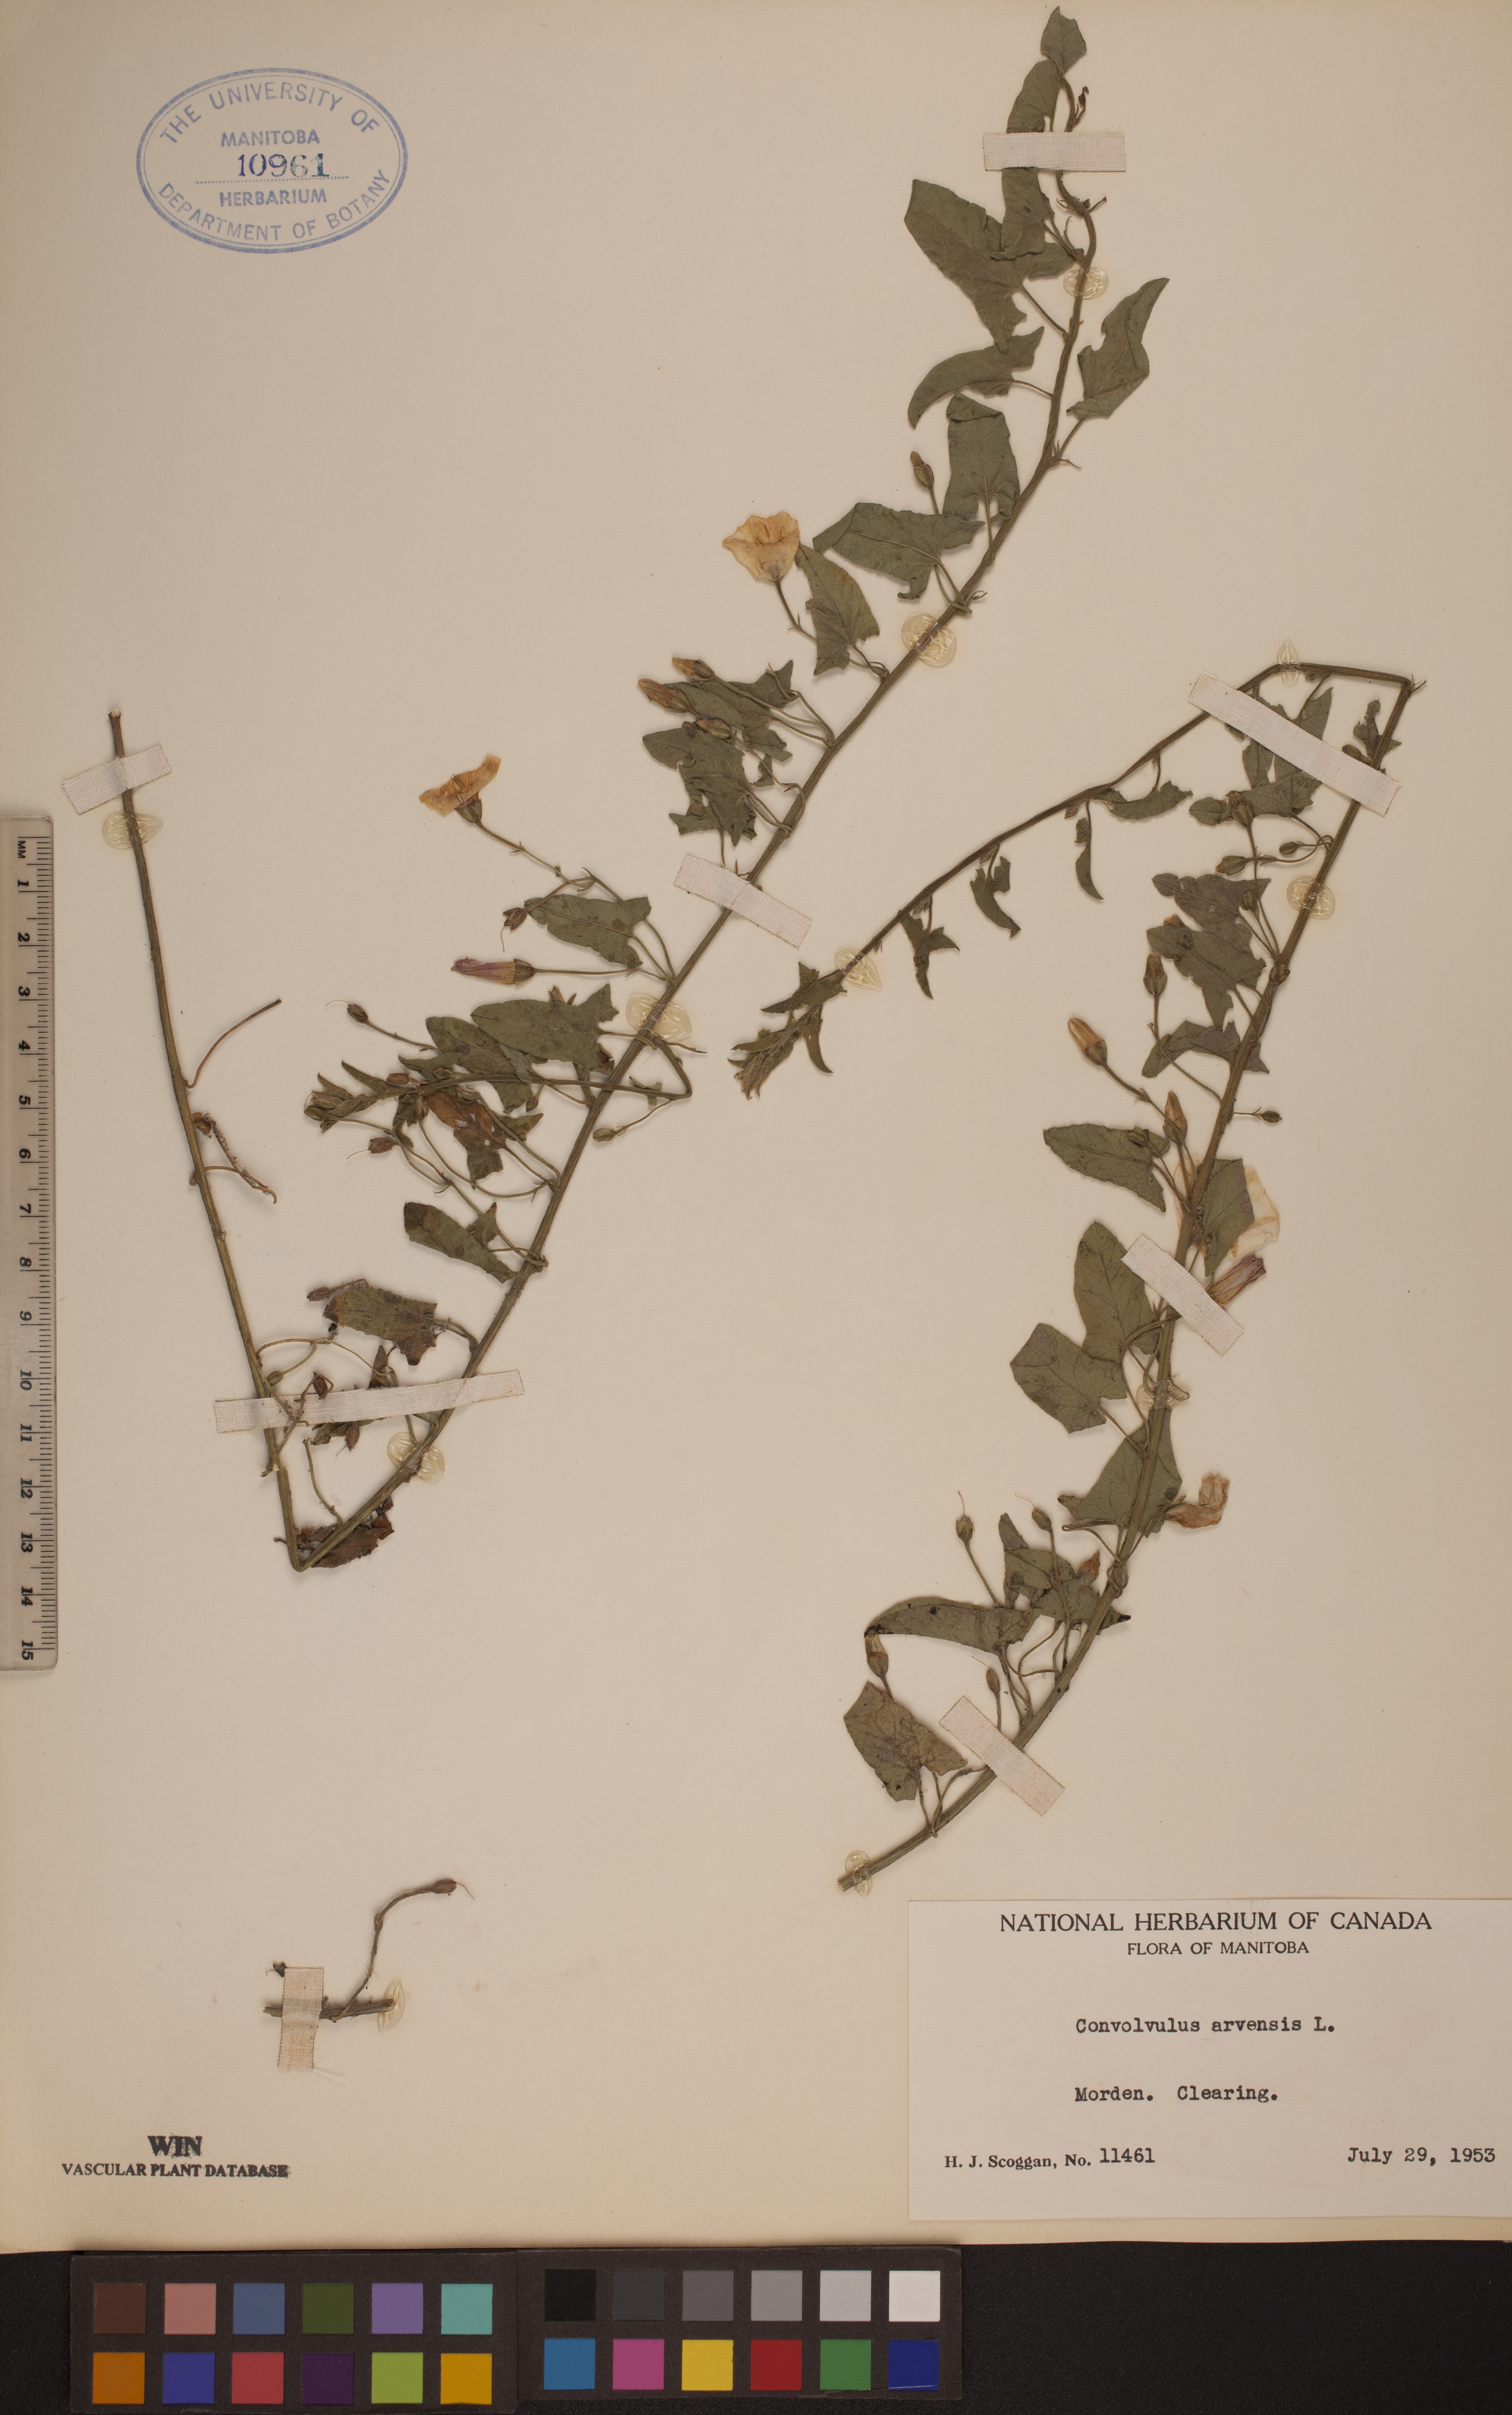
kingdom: Plantae
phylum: Tracheophyta
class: Magnoliopsida
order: Solanales
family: Convolvulaceae
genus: Convolvulus
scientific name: Convolvulus arvensis
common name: Field bindweed
